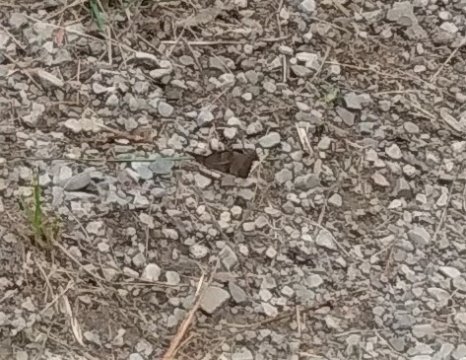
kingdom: Animalia
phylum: Arthropoda
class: Insecta
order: Lepidoptera
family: Nymphalidae
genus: Libytheana
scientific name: Libytheana carinenta
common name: American Snout
